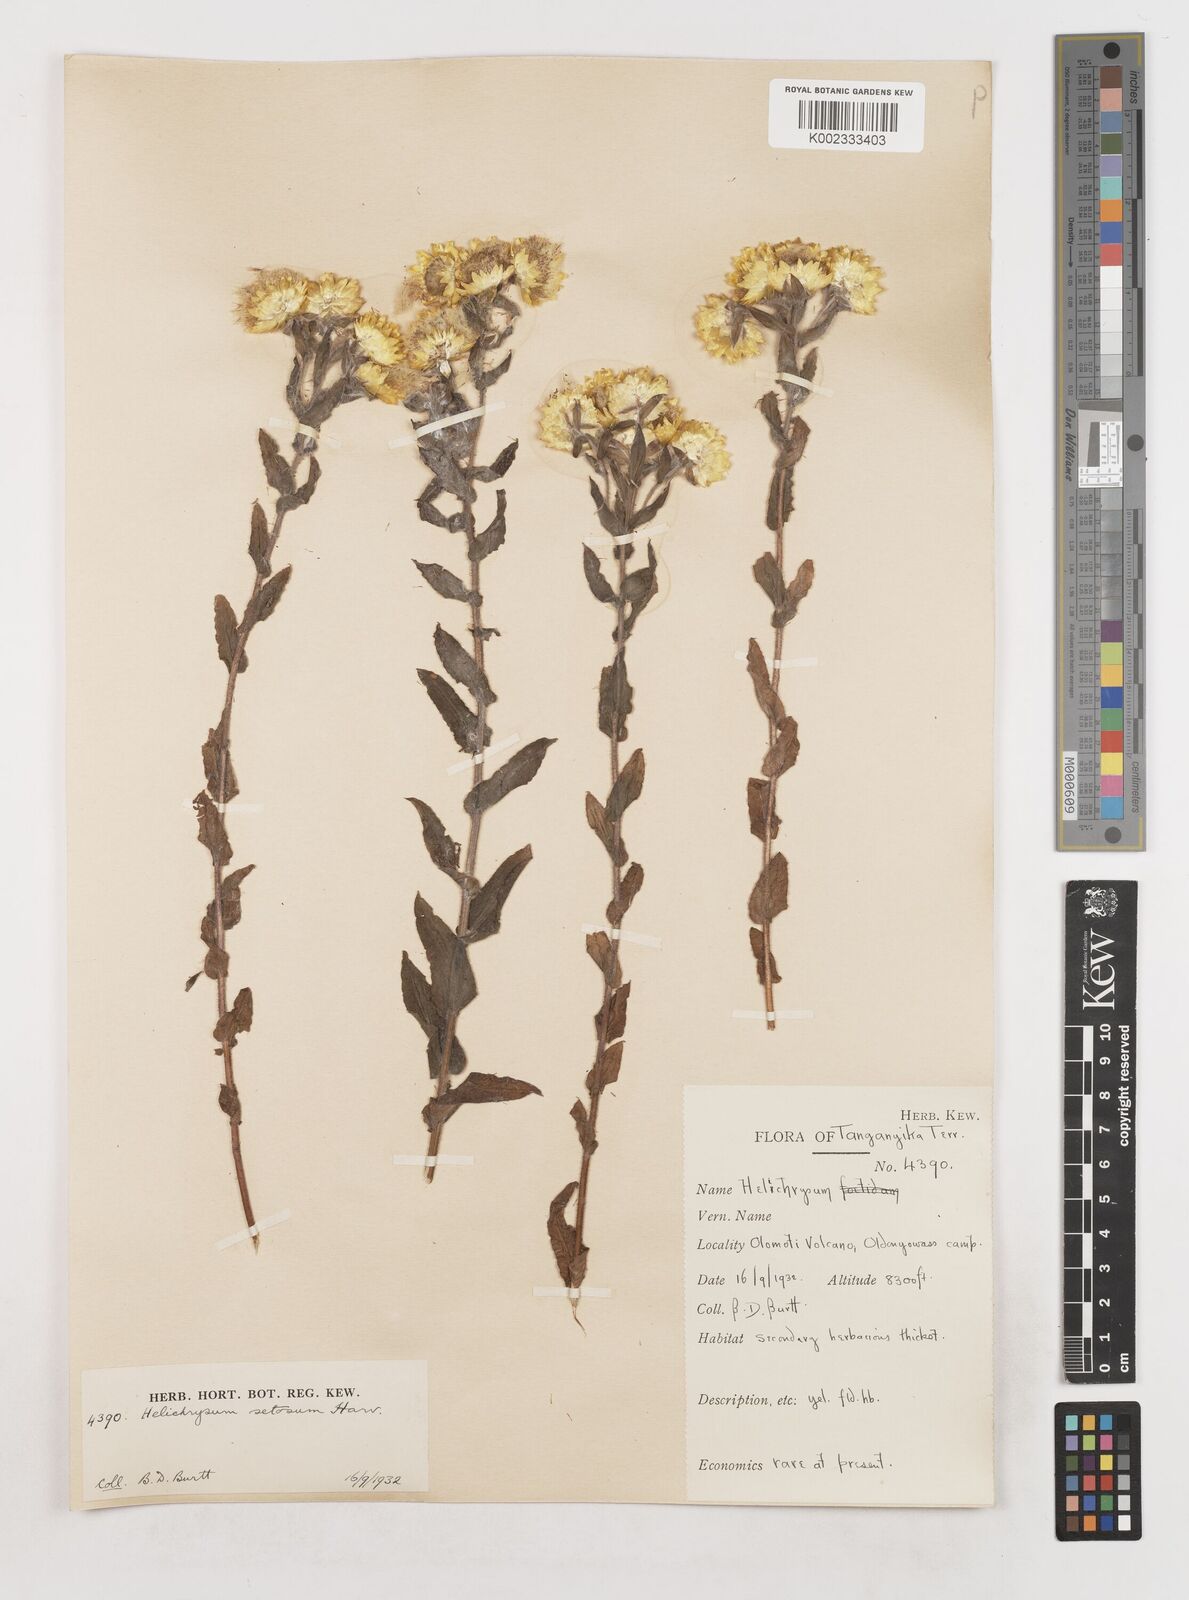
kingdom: Plantae
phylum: Tracheophyta
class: Magnoliopsida
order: Asterales
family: Asteraceae
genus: Helichrysum
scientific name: Helichrysum setosum
